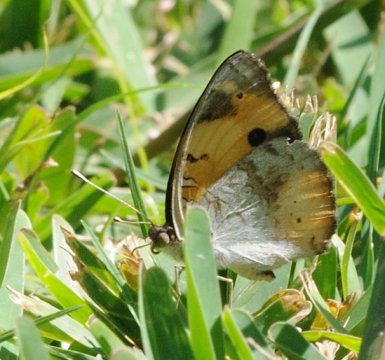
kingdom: Animalia
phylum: Arthropoda
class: Insecta
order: Lepidoptera
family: Nymphalidae
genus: Junonia
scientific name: Junonia hierta
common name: Yellow Pansy
